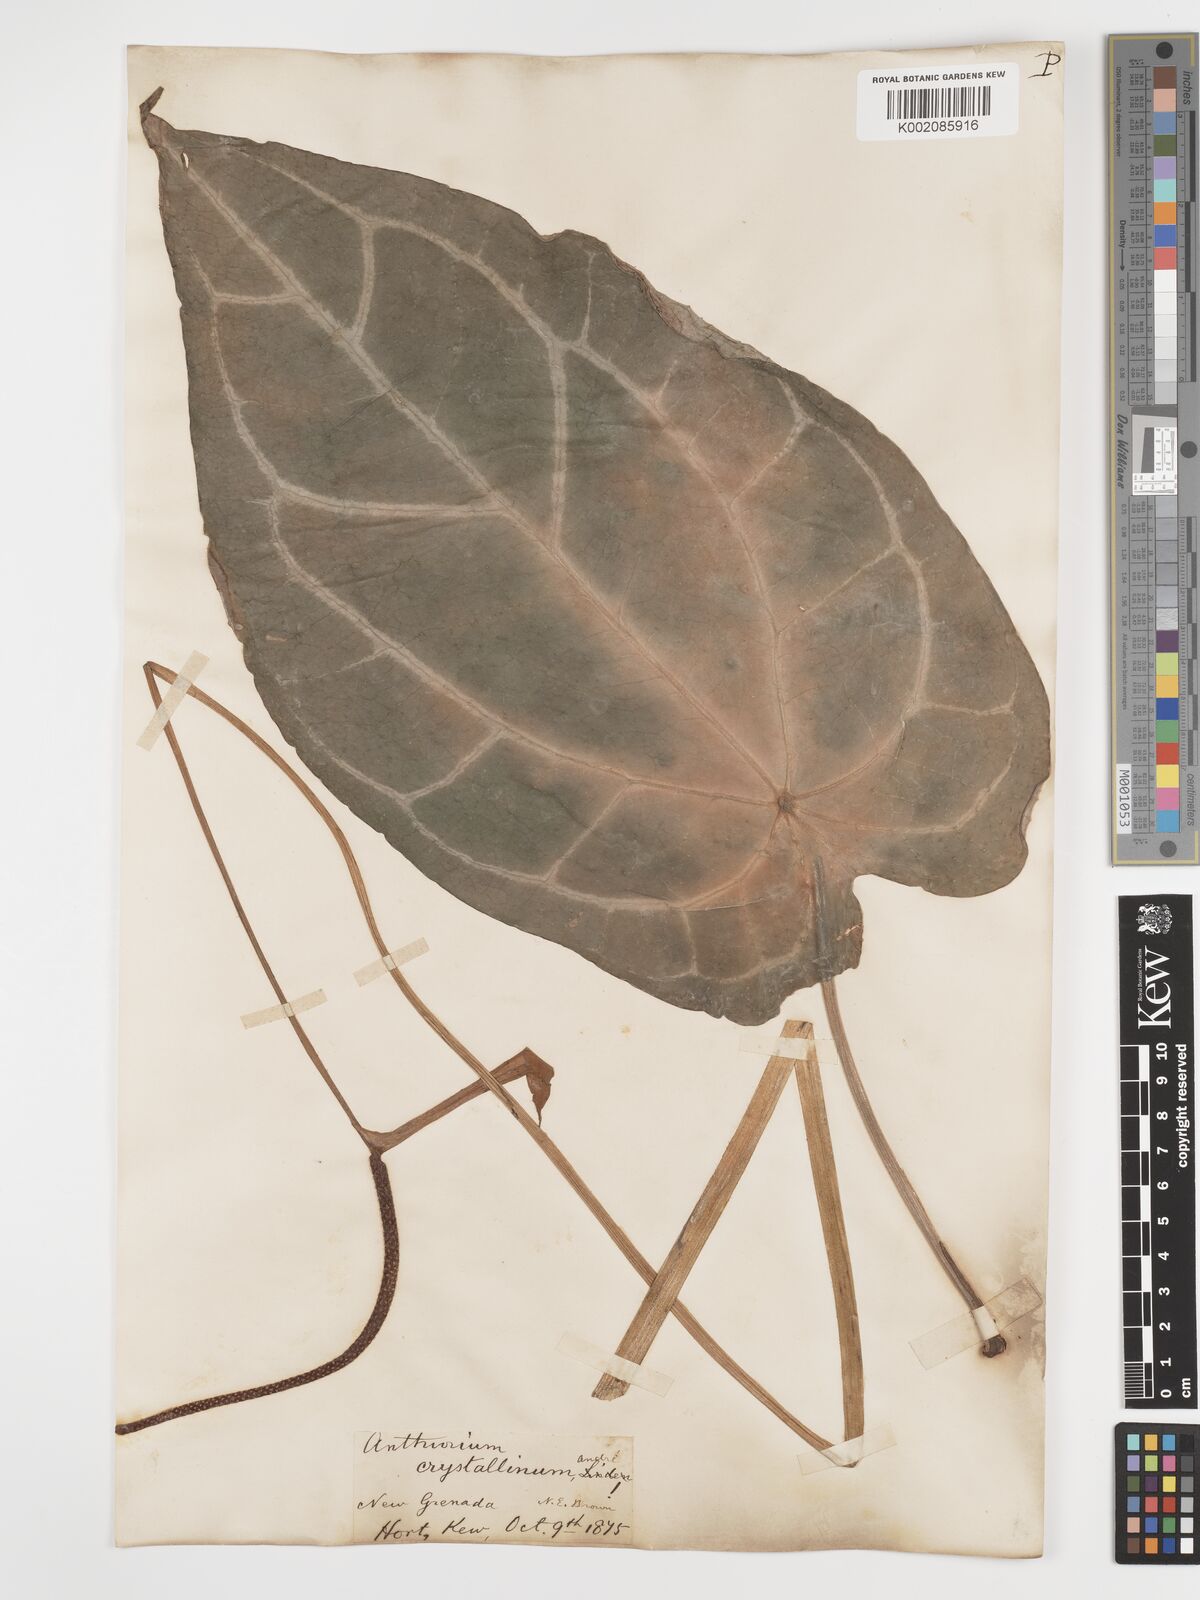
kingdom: Plantae
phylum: Tracheophyta
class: Liliopsida
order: Alismatales
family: Araceae
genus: Anthurium
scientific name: Anthurium crystallinum
